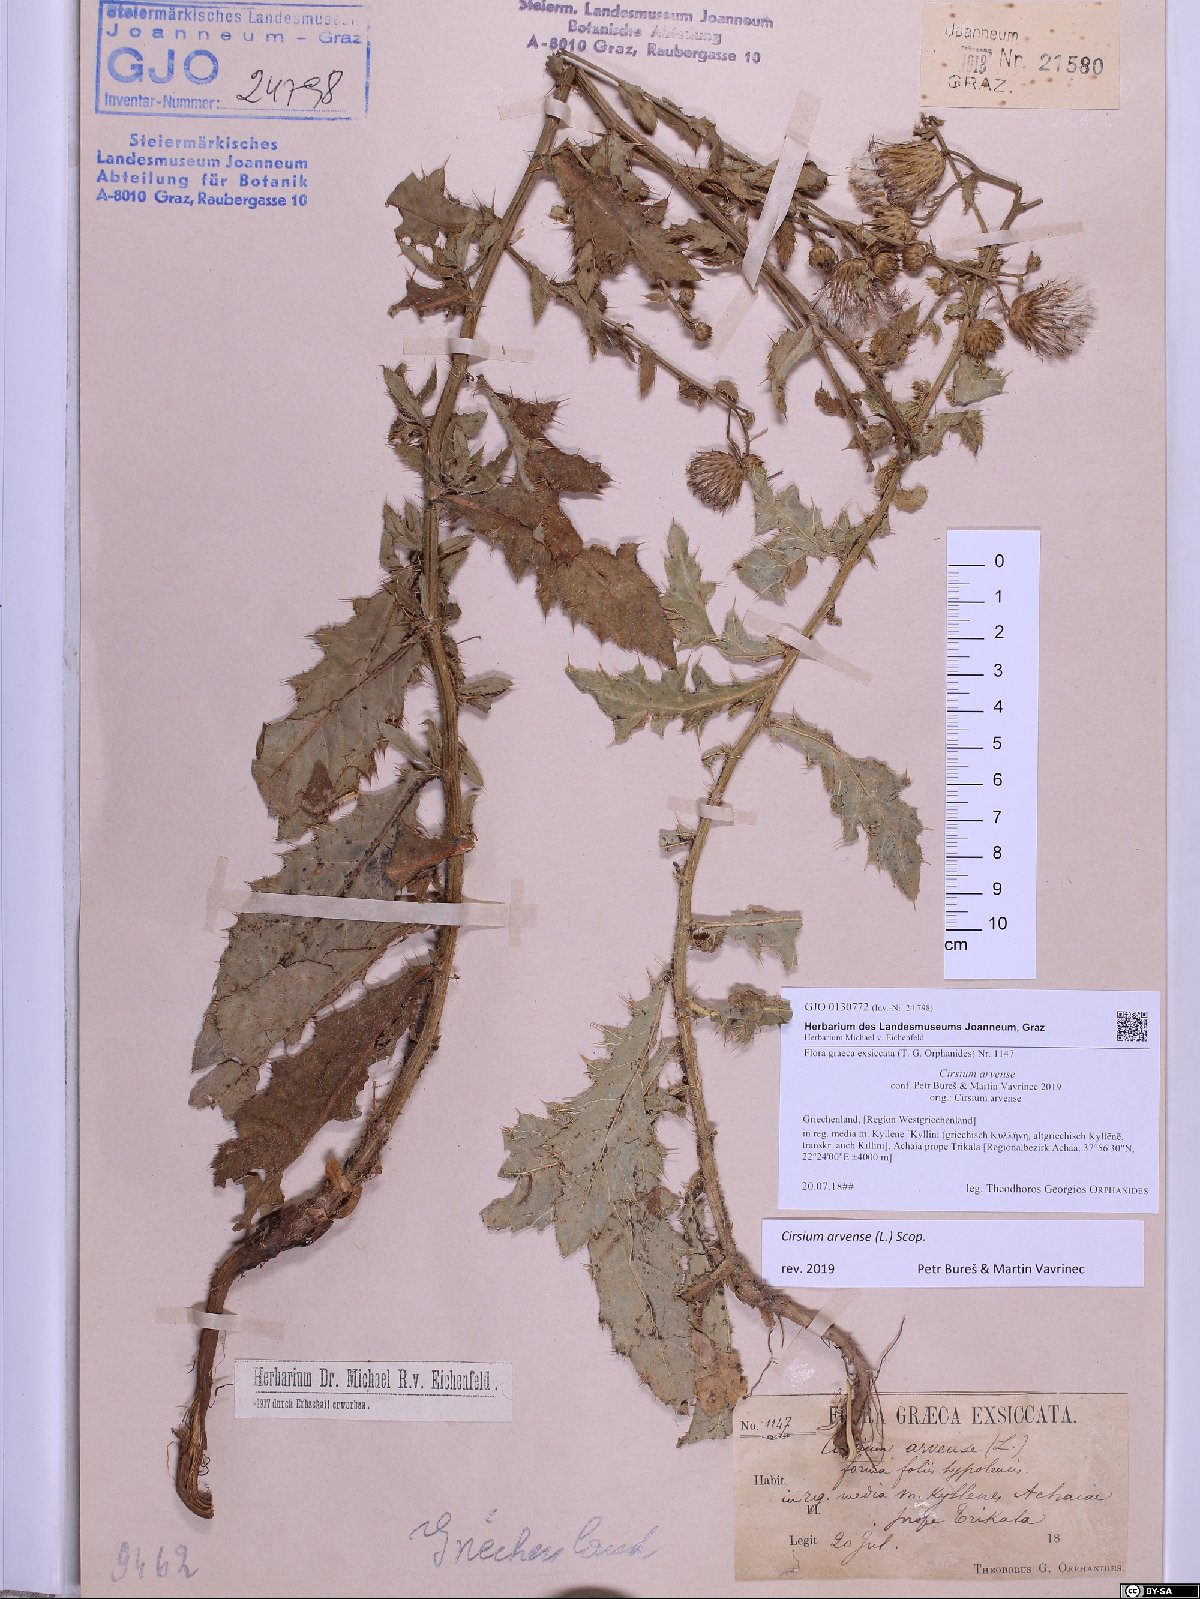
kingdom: Plantae
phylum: Tracheophyta
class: Magnoliopsida
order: Asterales
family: Asteraceae
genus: Cirsium
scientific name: Cirsium arvense
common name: Creeping thistle
